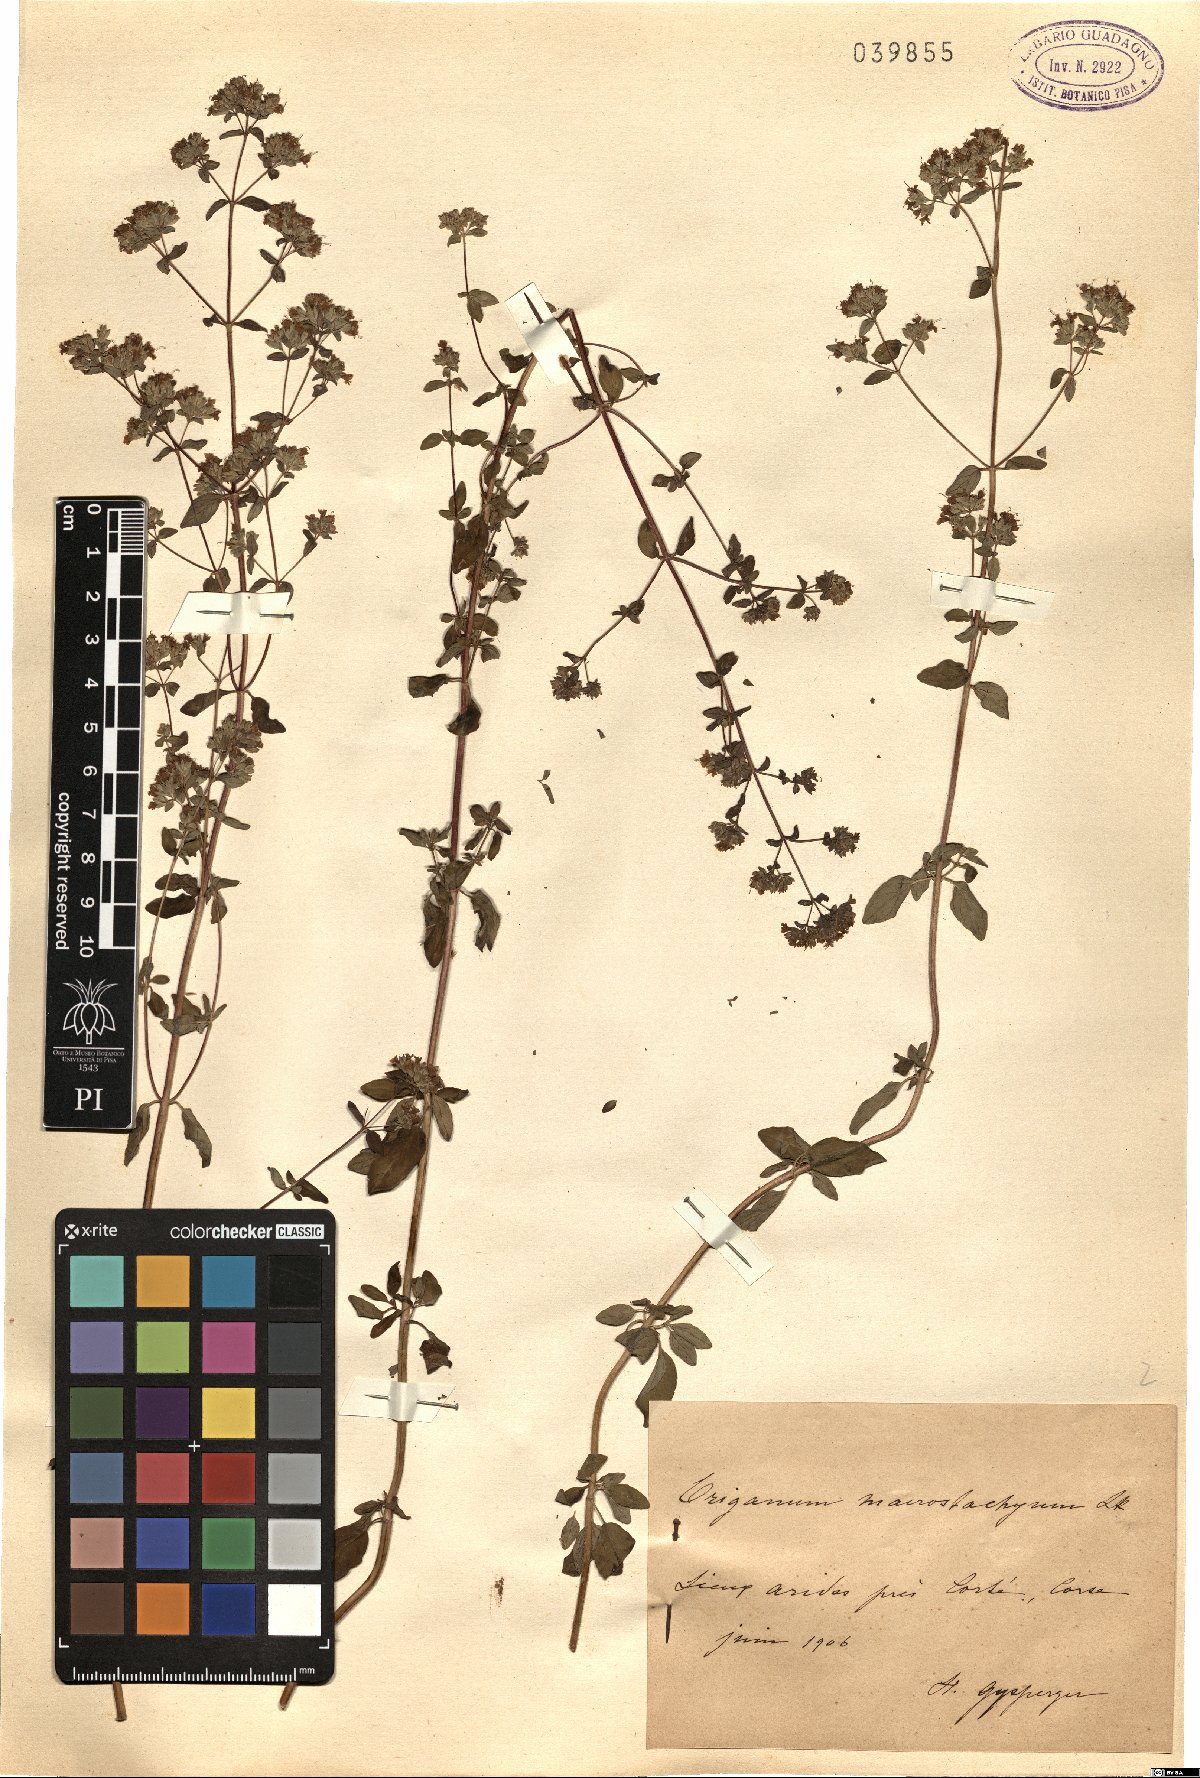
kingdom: Plantae
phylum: Tracheophyta
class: Magnoliopsida
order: Lamiales
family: Lamiaceae
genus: Origanum
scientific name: Origanum vulgare
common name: Wild marjoram
